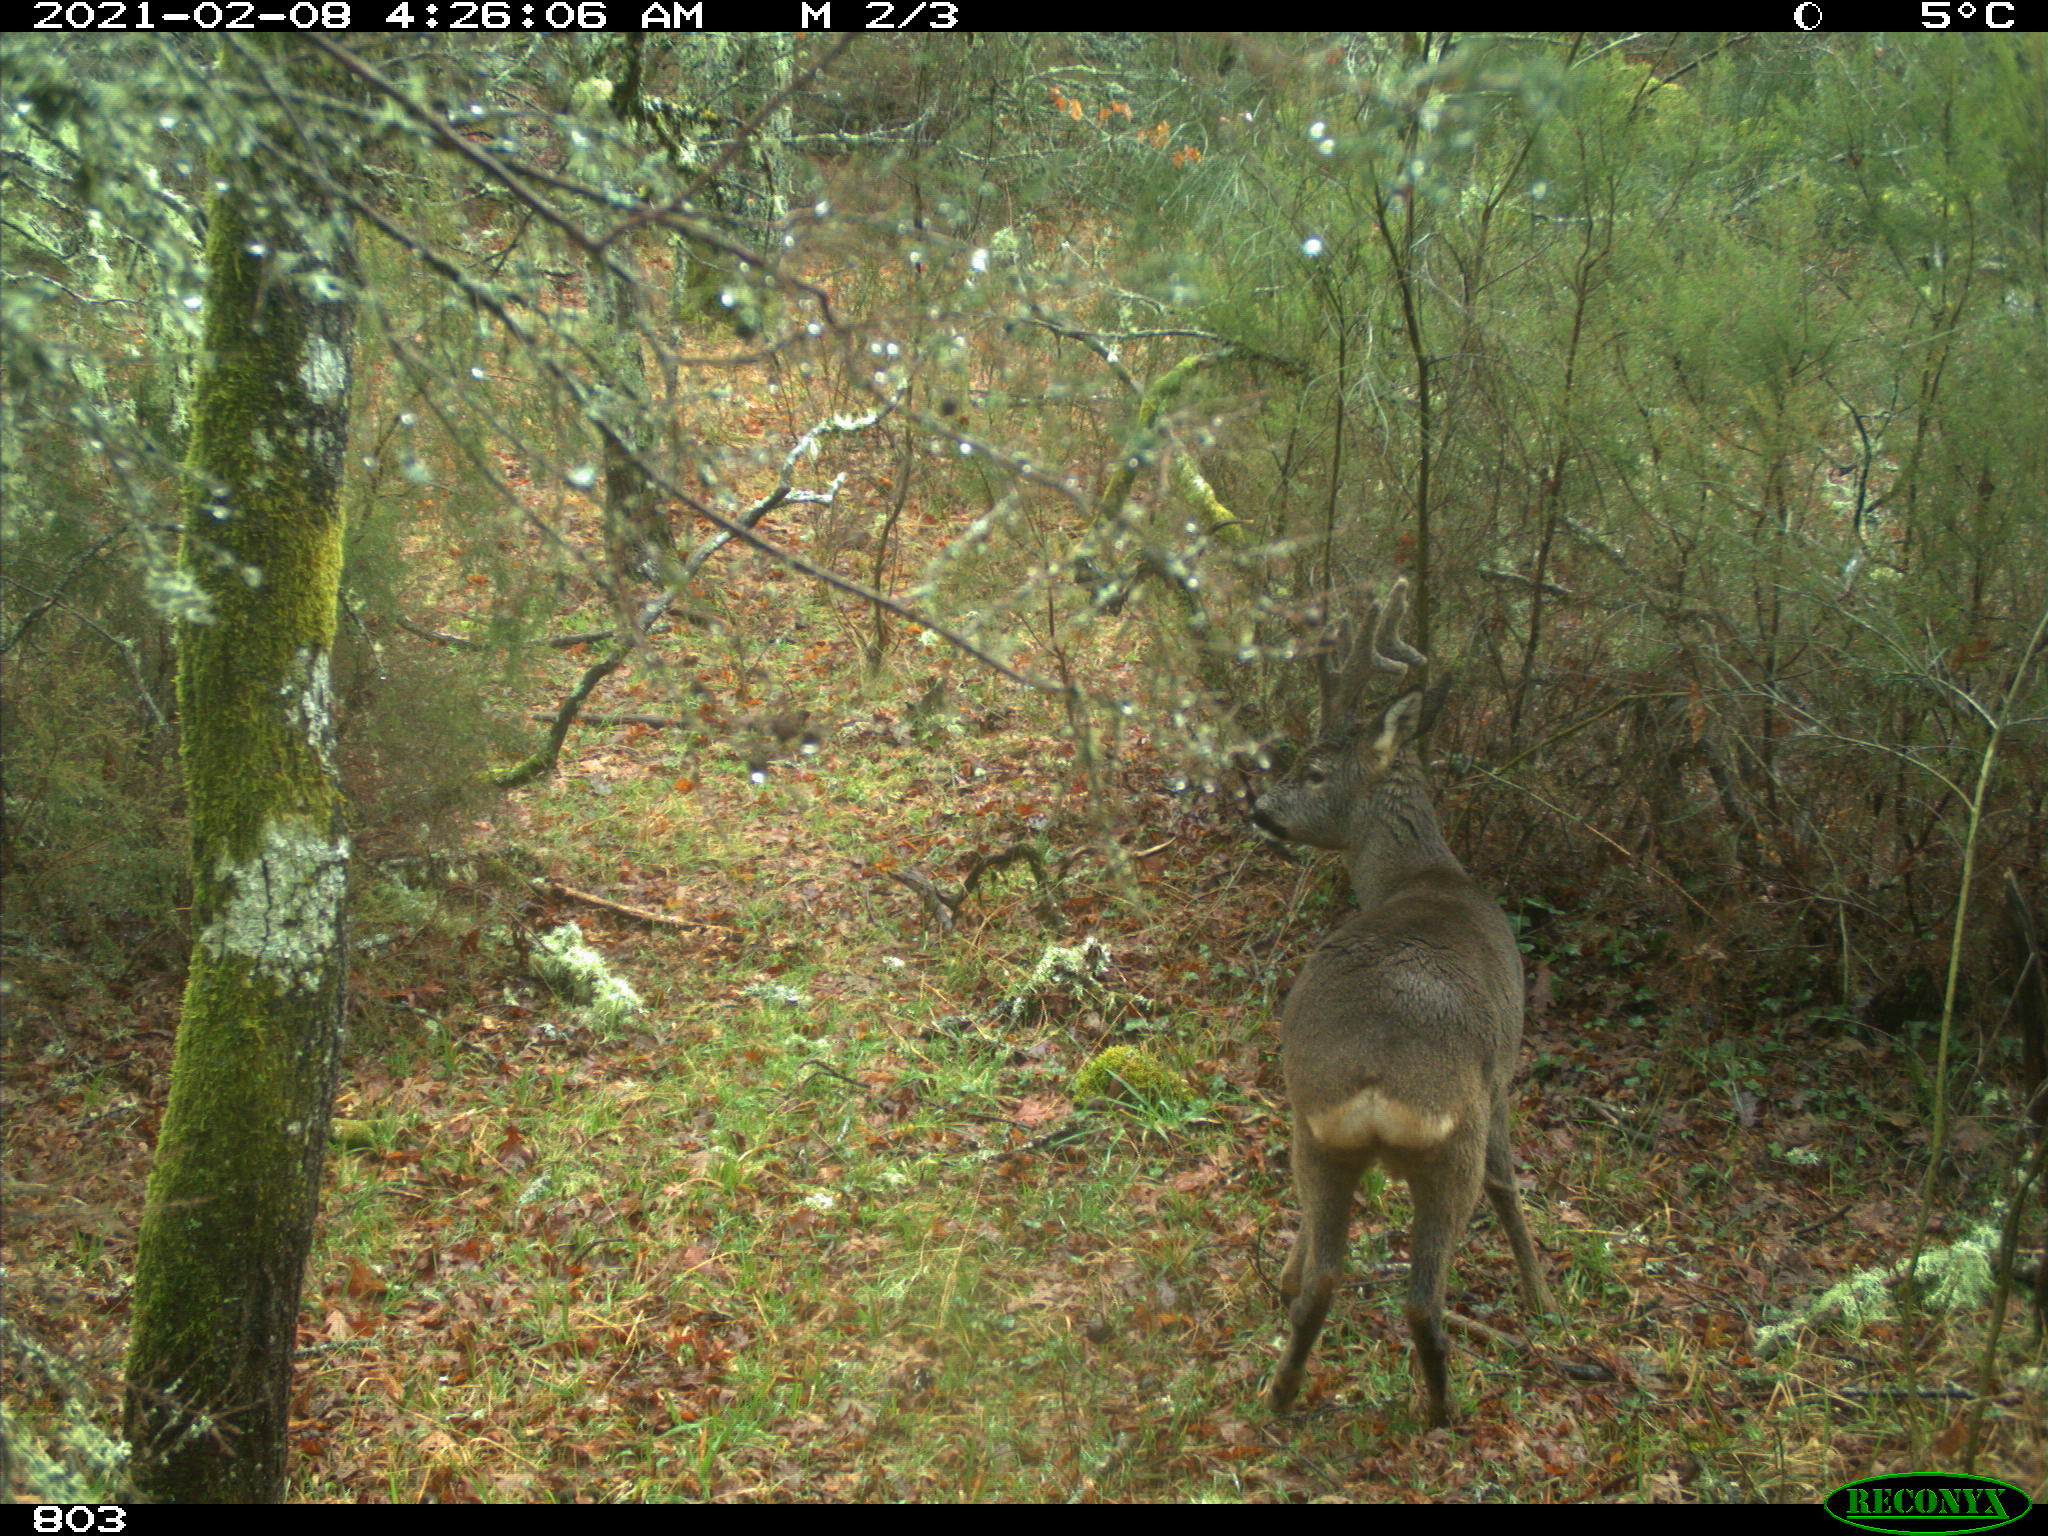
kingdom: Animalia
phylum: Chordata
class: Mammalia
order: Artiodactyla
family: Cervidae
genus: Capreolus
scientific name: Capreolus capreolus
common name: Western roe deer
